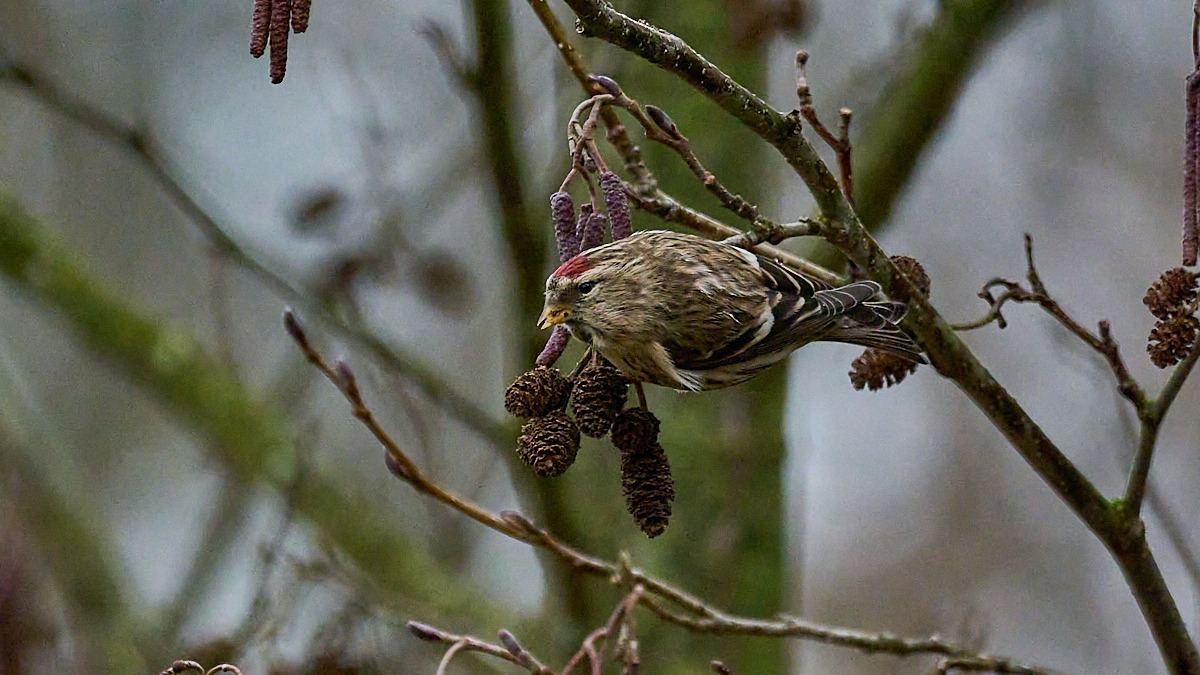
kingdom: Animalia
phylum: Chordata
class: Aves
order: Passeriformes
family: Fringillidae
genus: Acanthis
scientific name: Acanthis flammea
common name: Nordlig gråsisken
